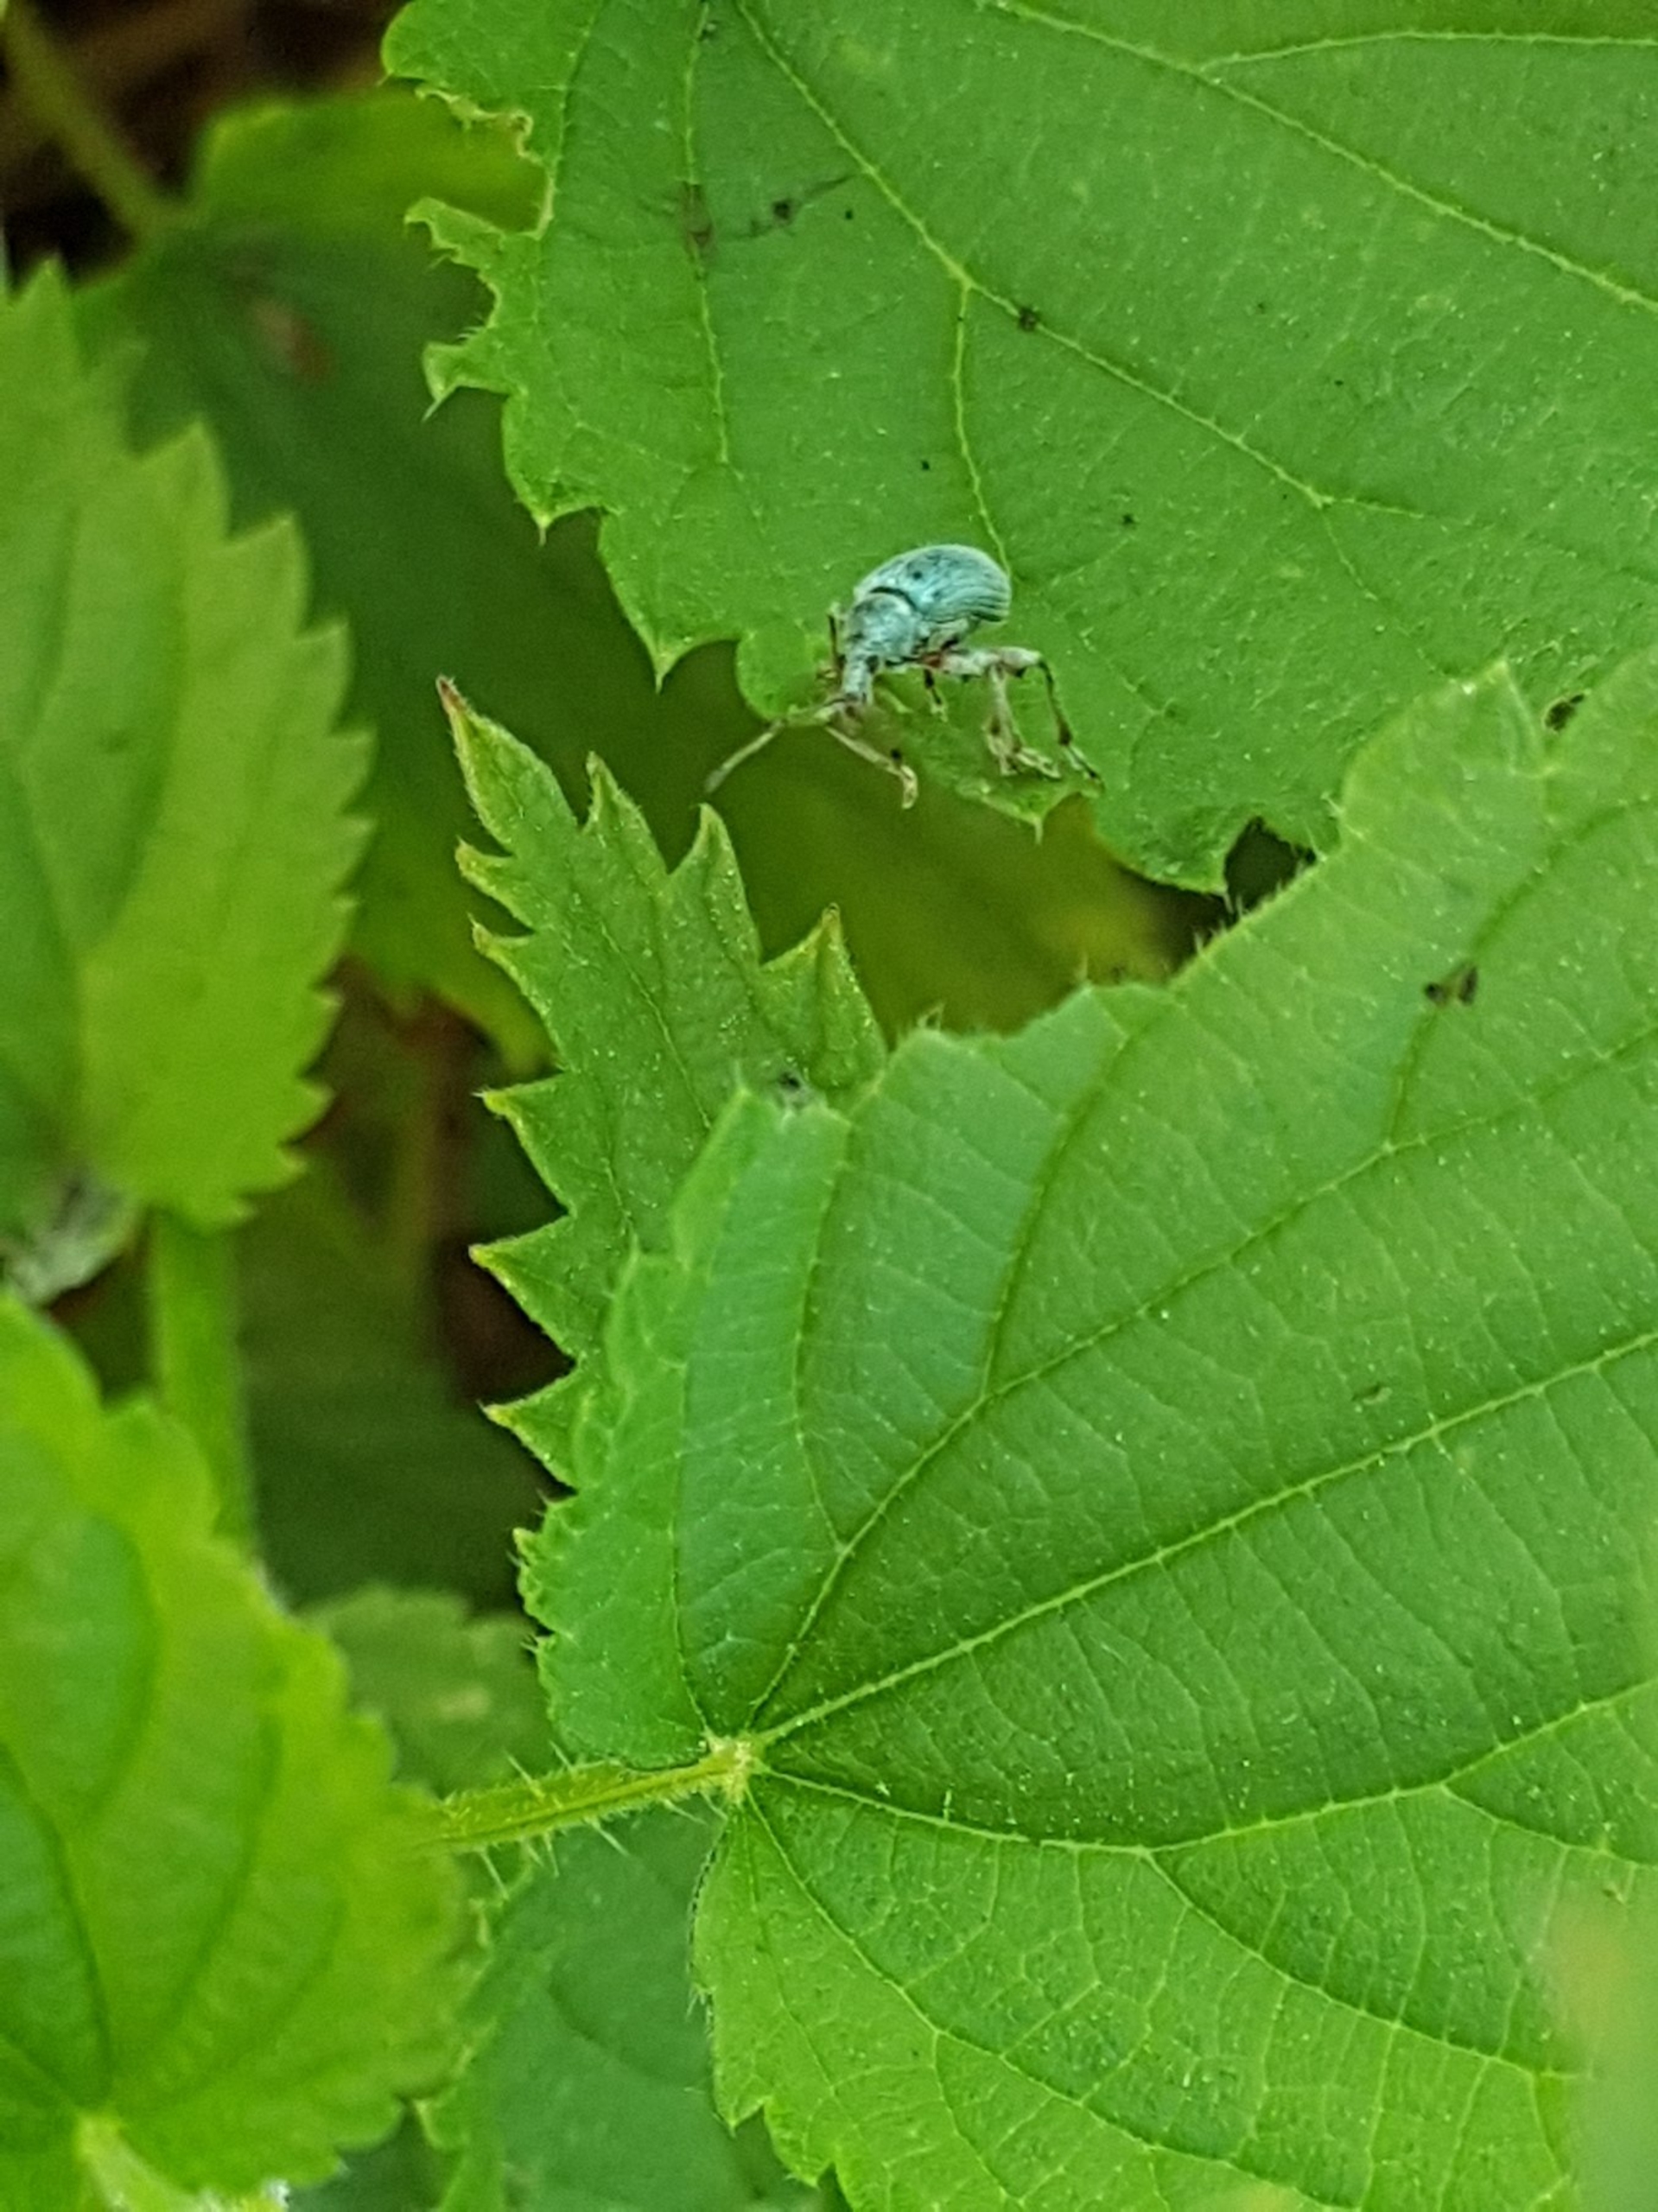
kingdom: Animalia
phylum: Arthropoda
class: Insecta
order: Coleoptera
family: Curculionidae
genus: Phyllobius
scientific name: Phyllobius pomaceus
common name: Nældesnudebille
